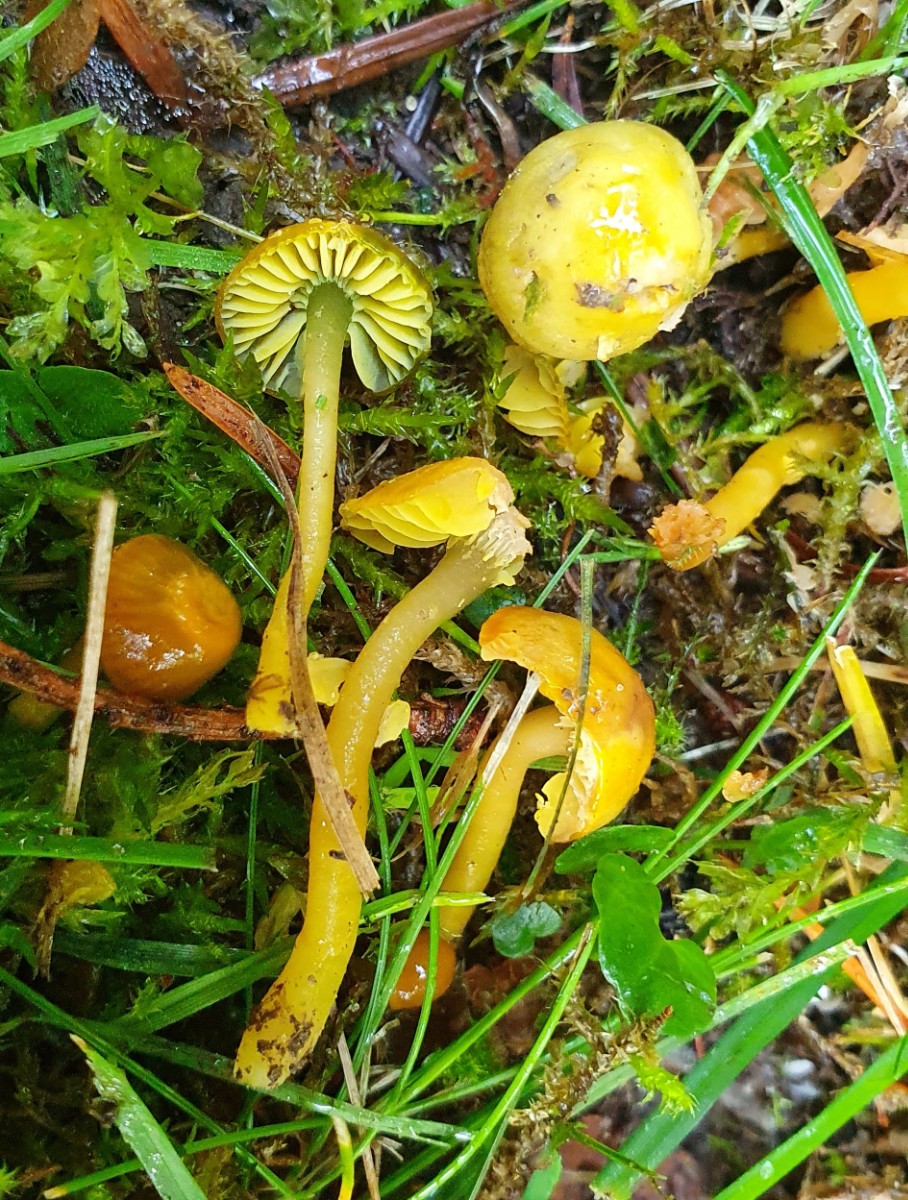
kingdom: Fungi
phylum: Basidiomycota
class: Agaricomycetes
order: Agaricales
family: Hygrophoraceae
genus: Gliophorus
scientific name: Gliophorus psittacinus
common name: papegøje-vokshat
